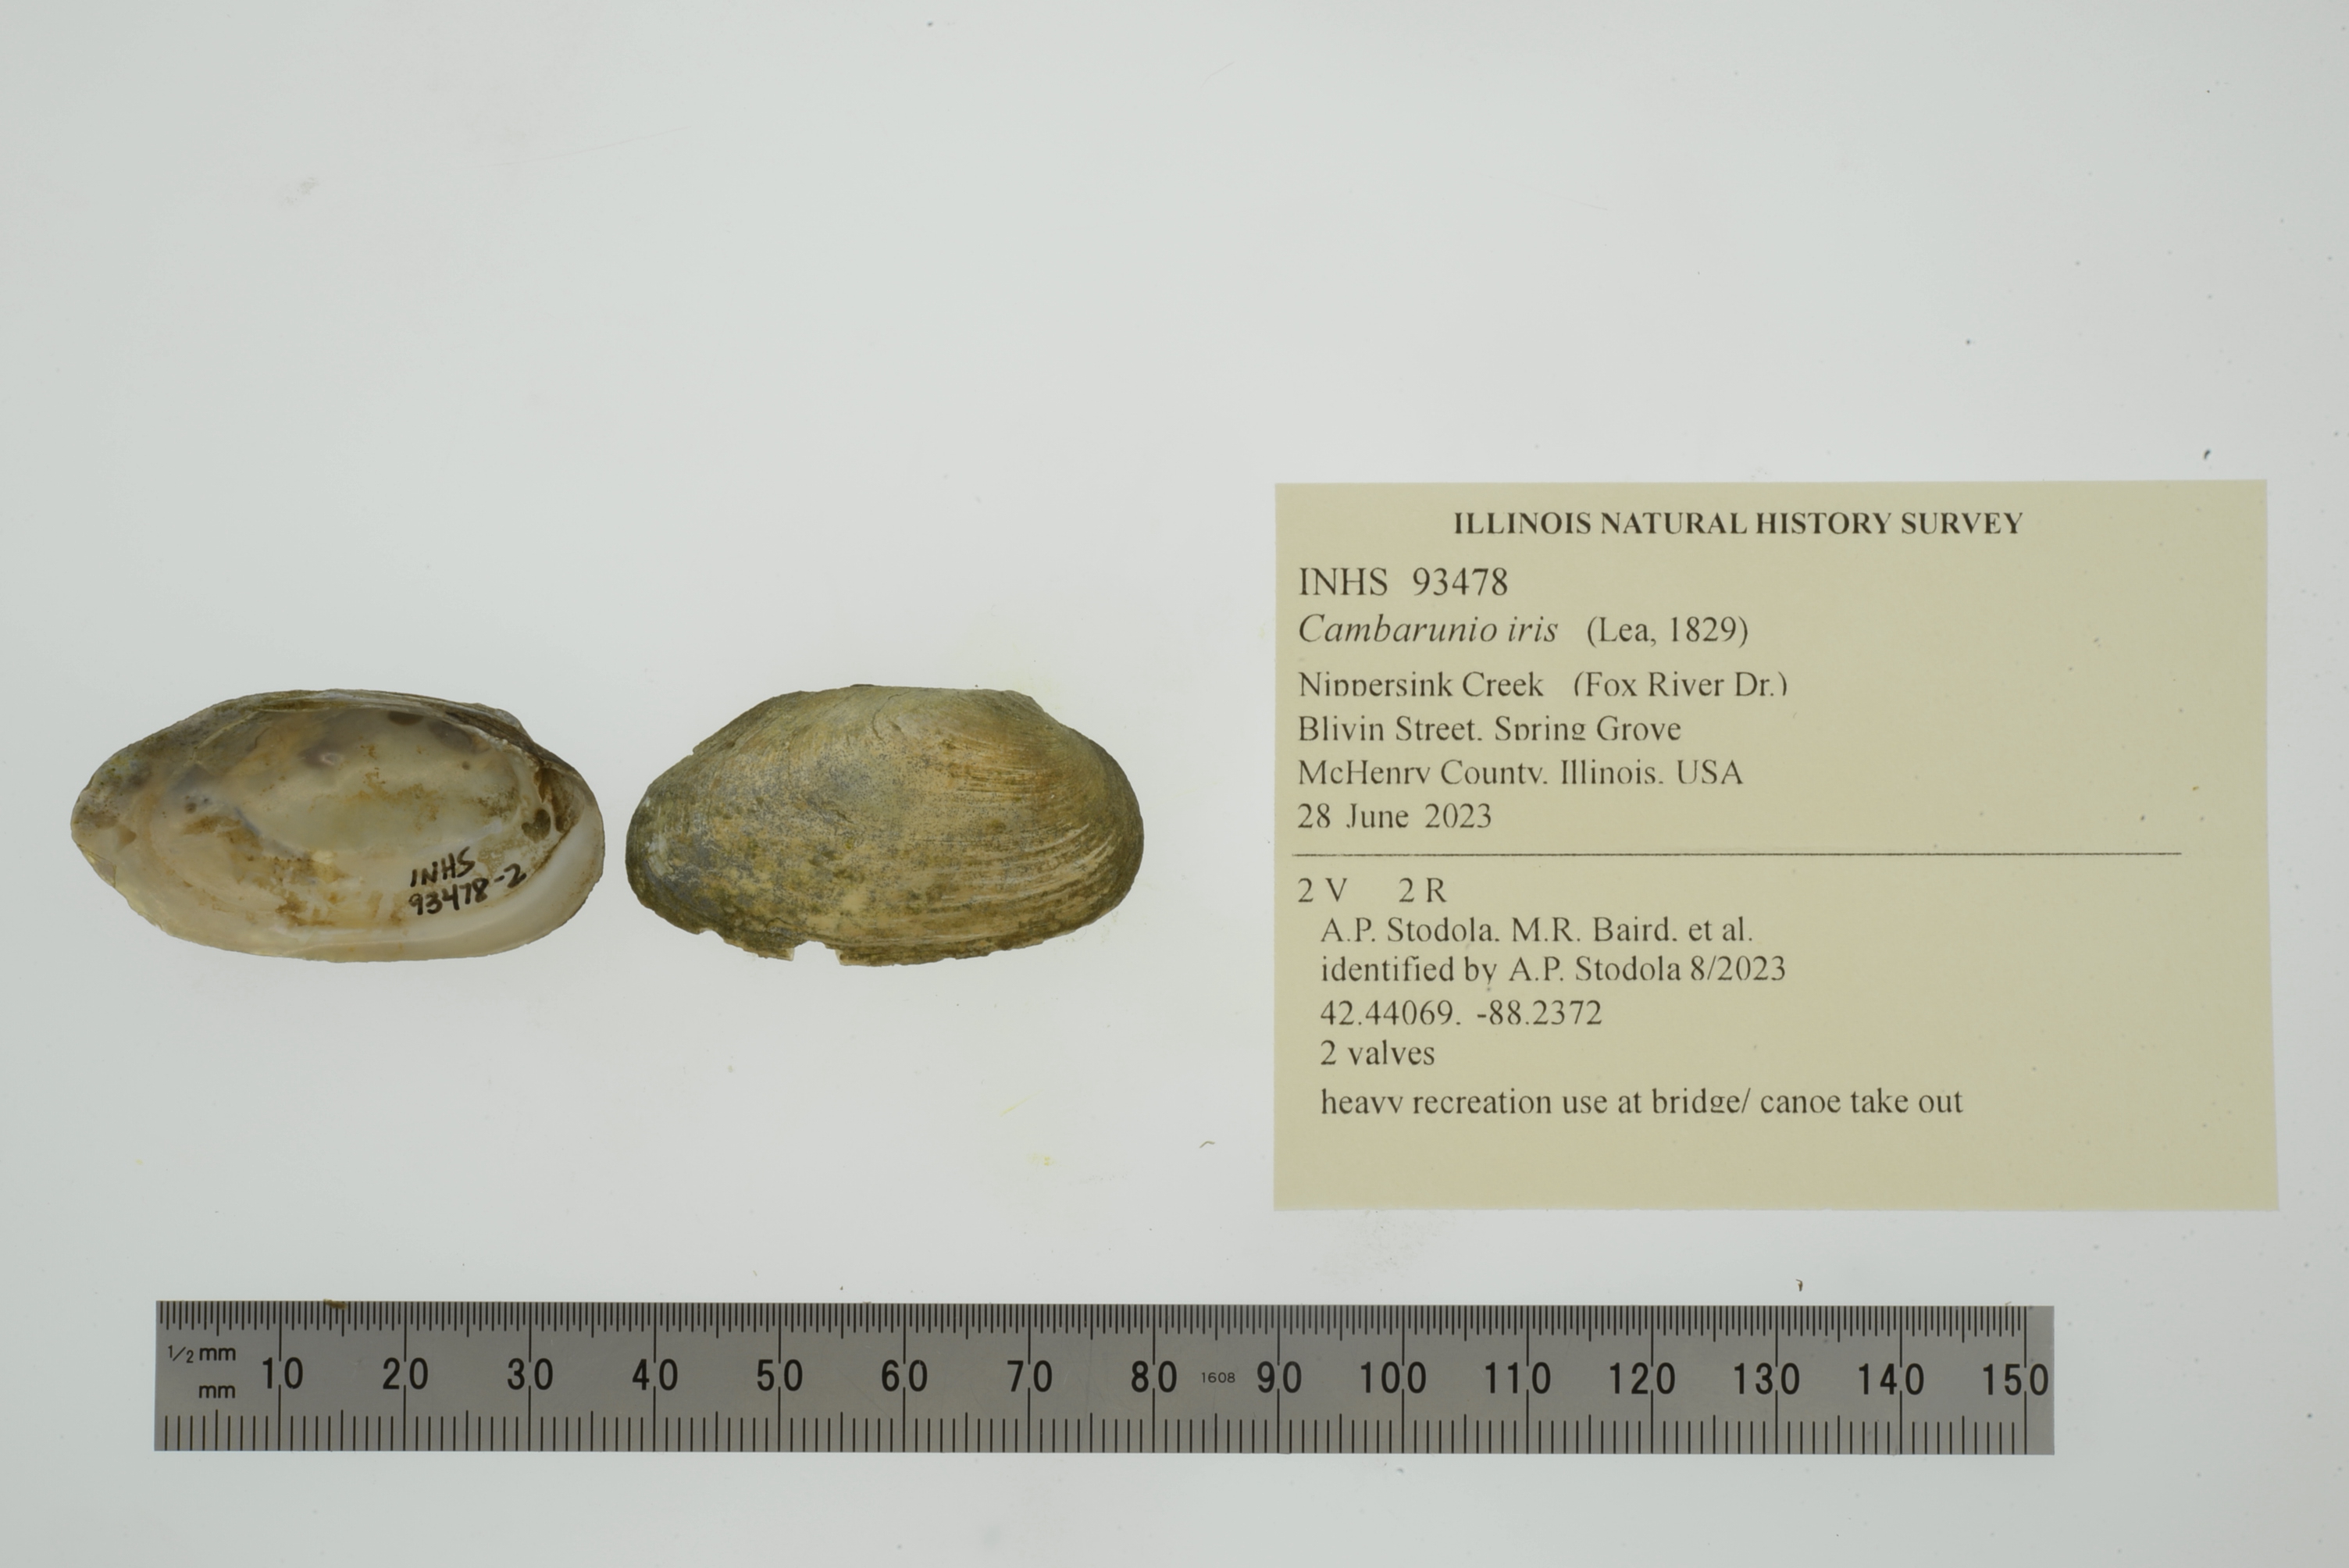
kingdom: Animalia
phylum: Mollusca
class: Bivalvia
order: Unionida
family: Unionidae
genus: Cambarunio
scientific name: Cambarunio iris
